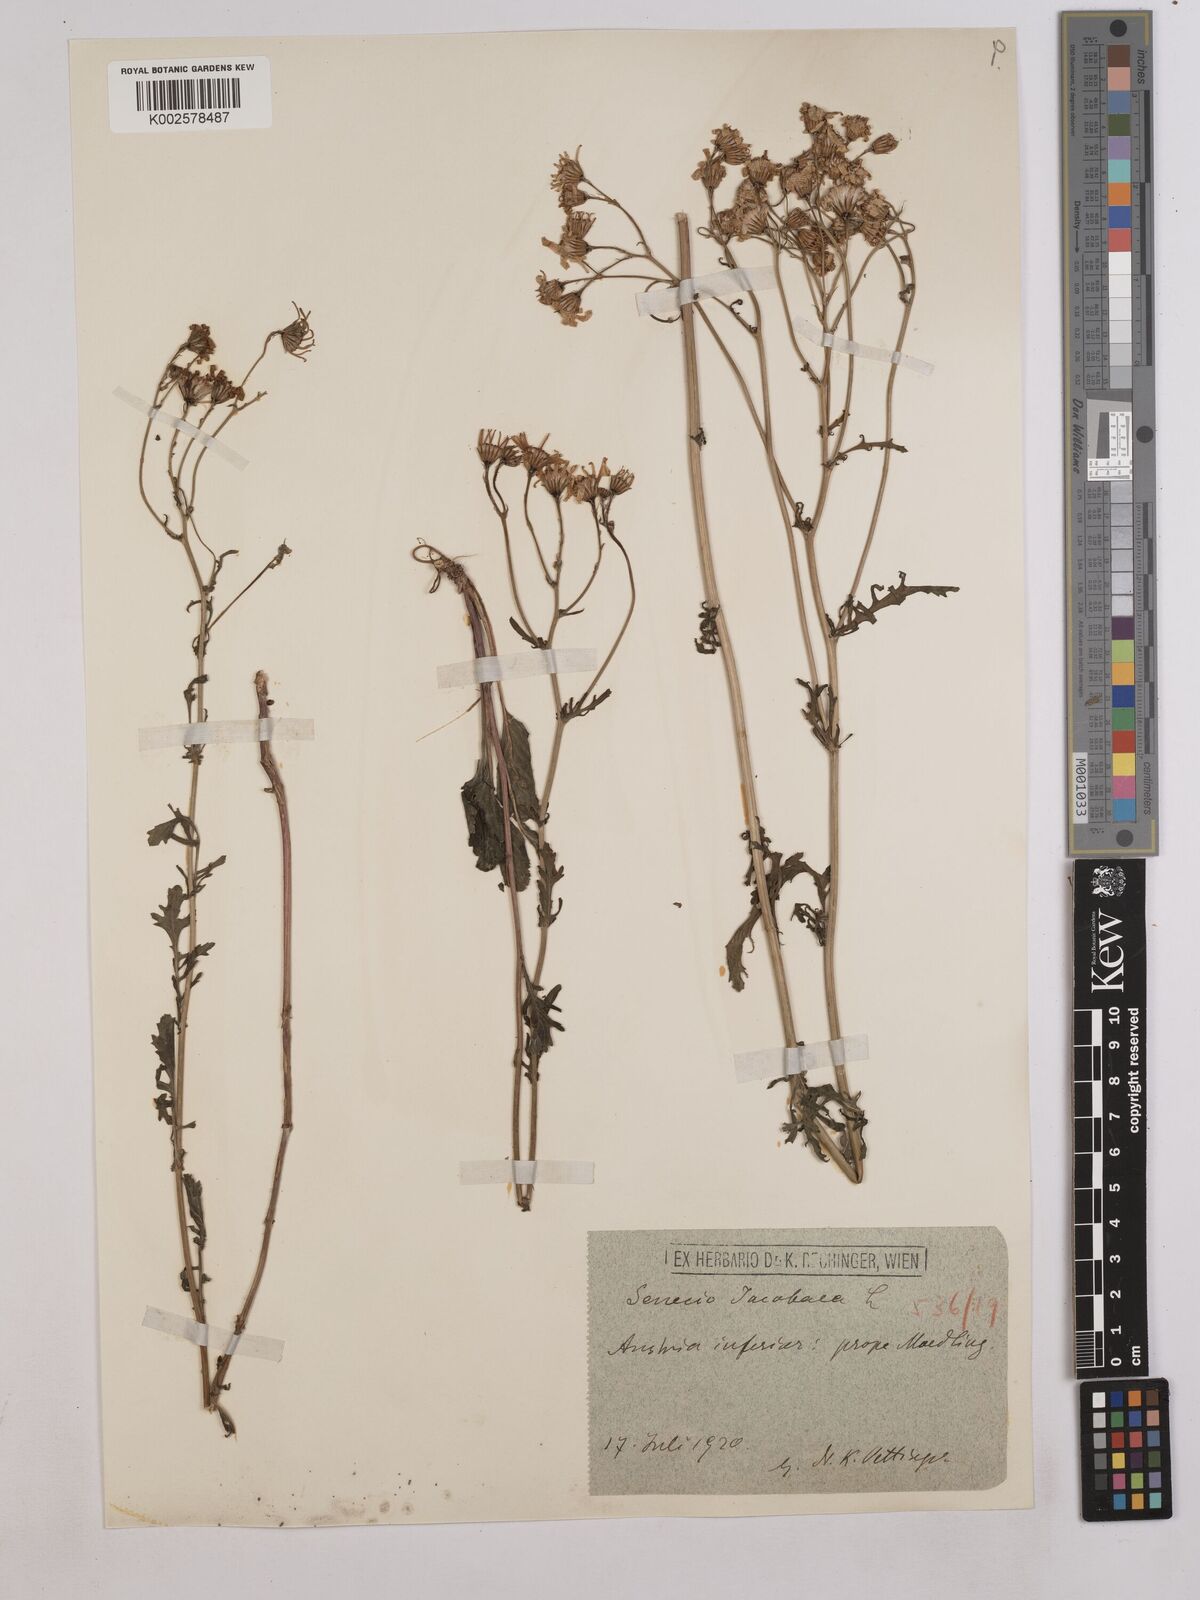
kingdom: Plantae
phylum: Tracheophyta
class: Magnoliopsida
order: Asterales
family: Asteraceae
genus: Jacobaea
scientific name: Jacobaea vulgaris
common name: Stinking willie
